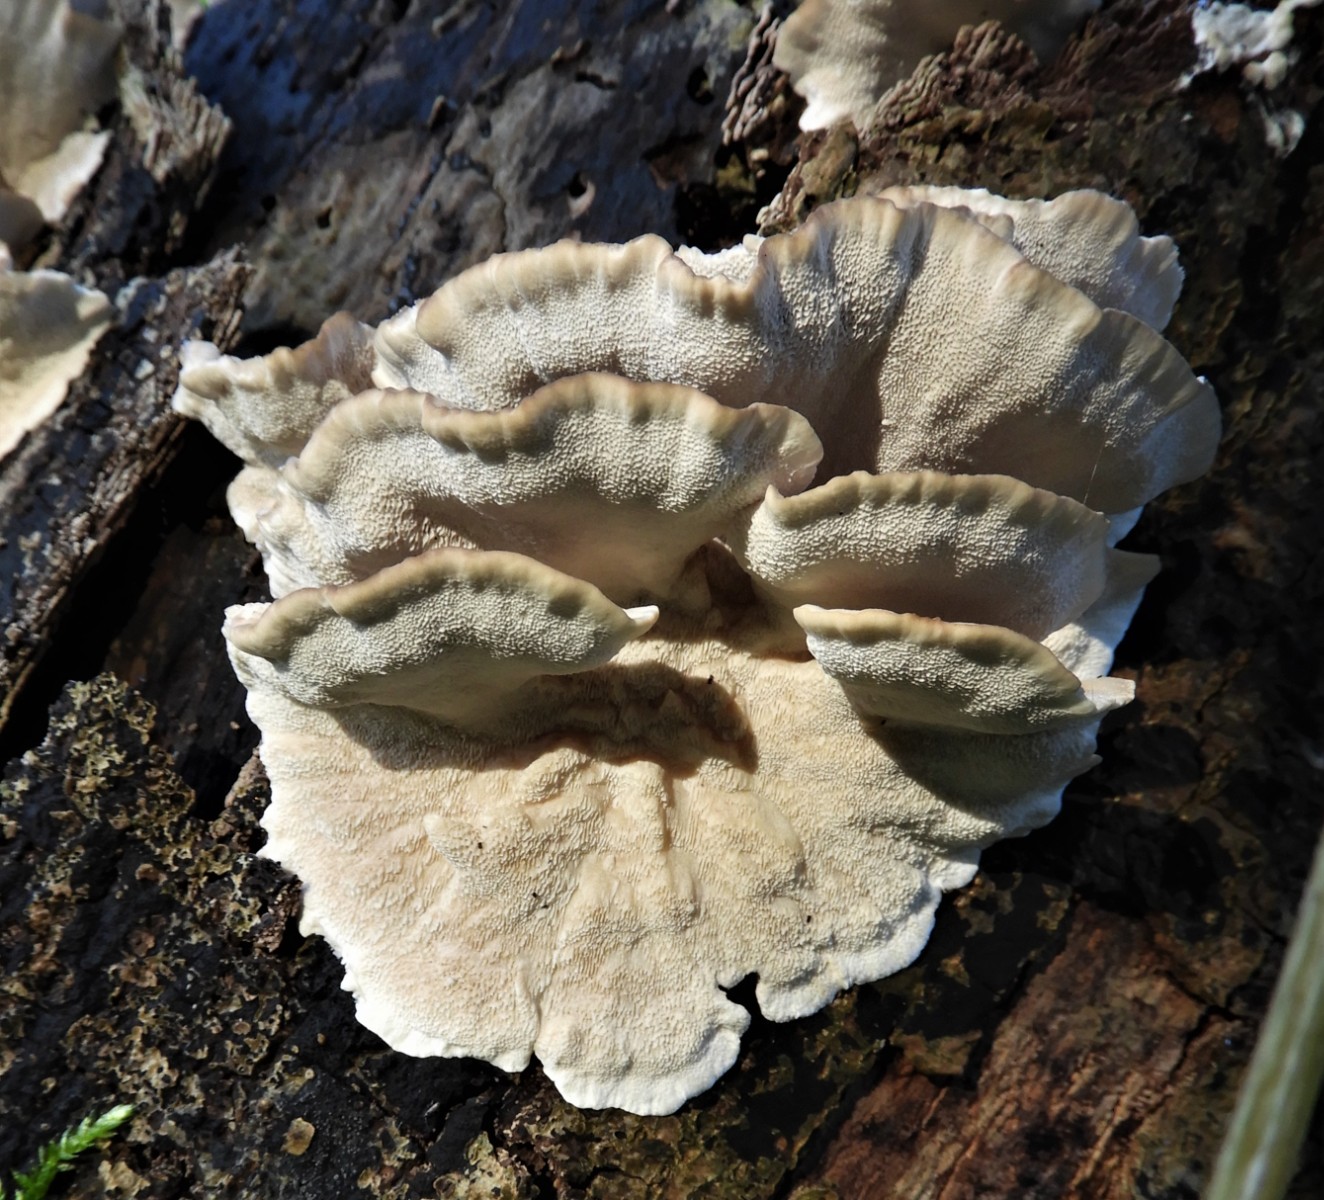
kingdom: Fungi
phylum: Basidiomycota
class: Agaricomycetes
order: Polyporales
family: Polyporaceae
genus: Trametes
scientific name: Trametes versicolor
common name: broget læderporesvamp
